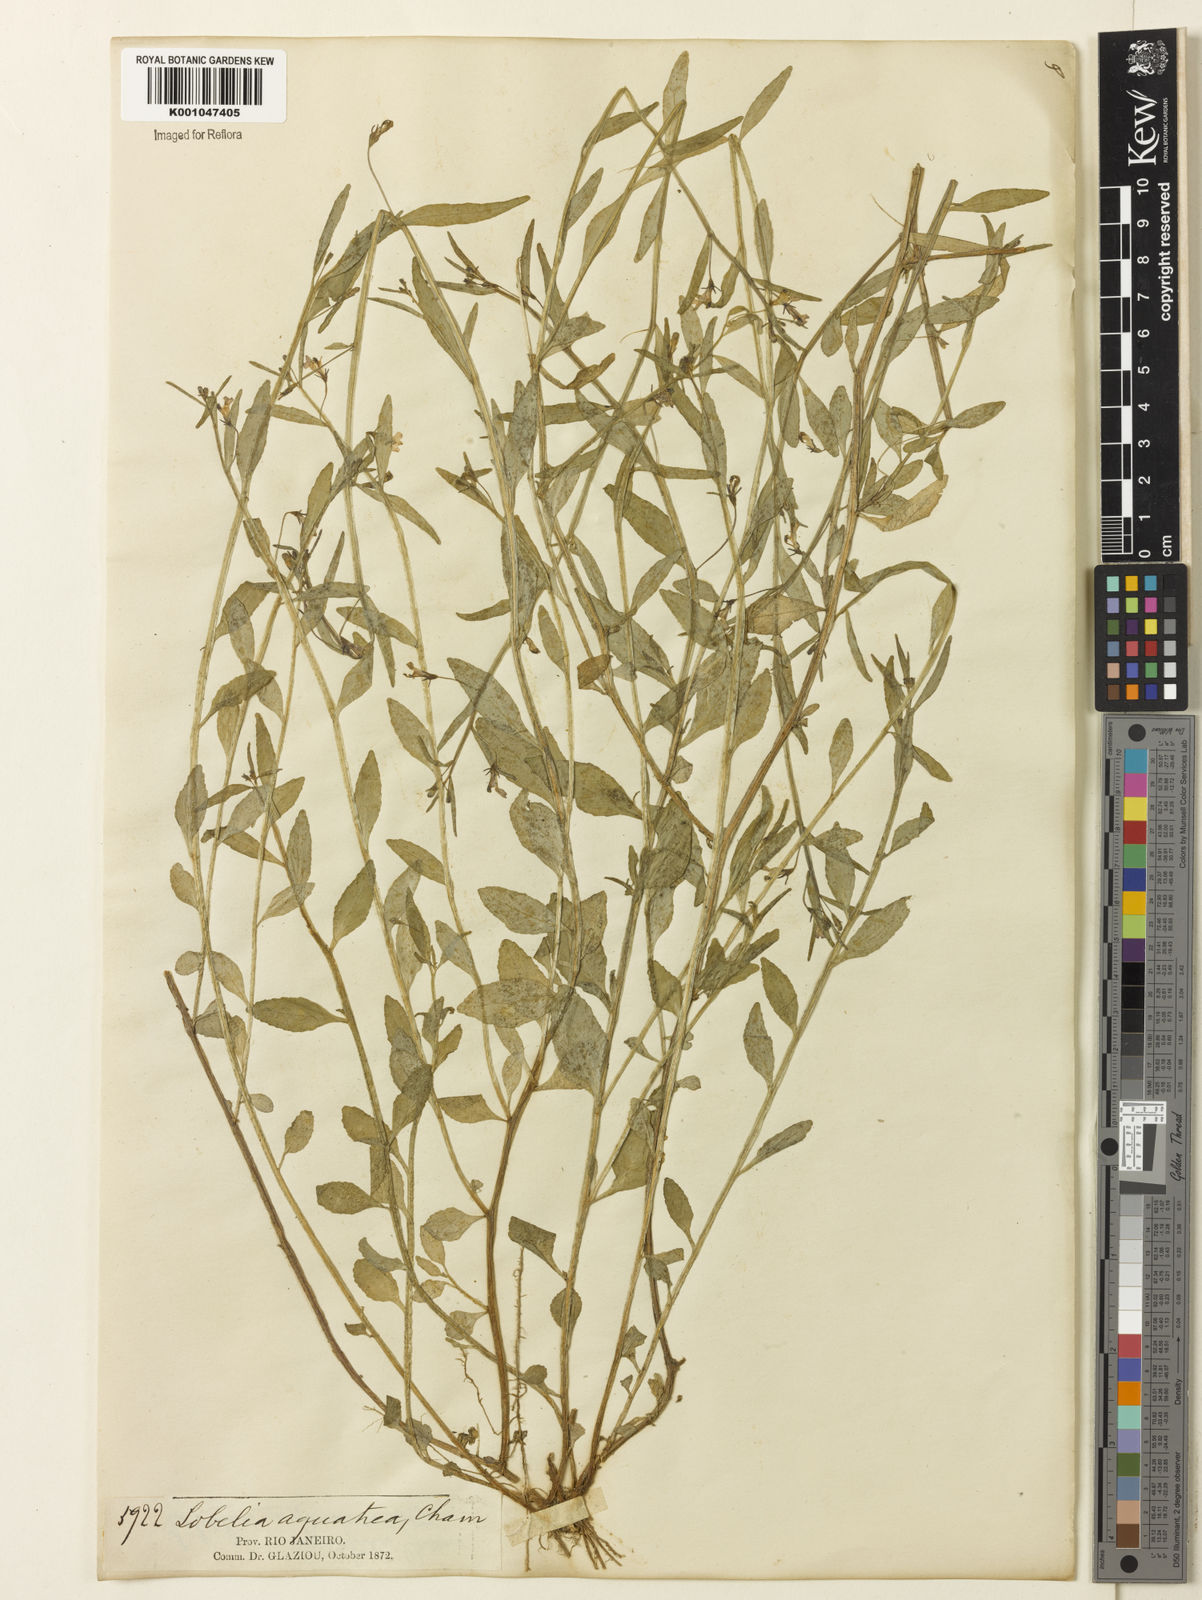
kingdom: Plantae
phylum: Tracheophyta
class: Magnoliopsida
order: Asterales
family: Campanulaceae
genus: Lobelia
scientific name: Lobelia aquatica
